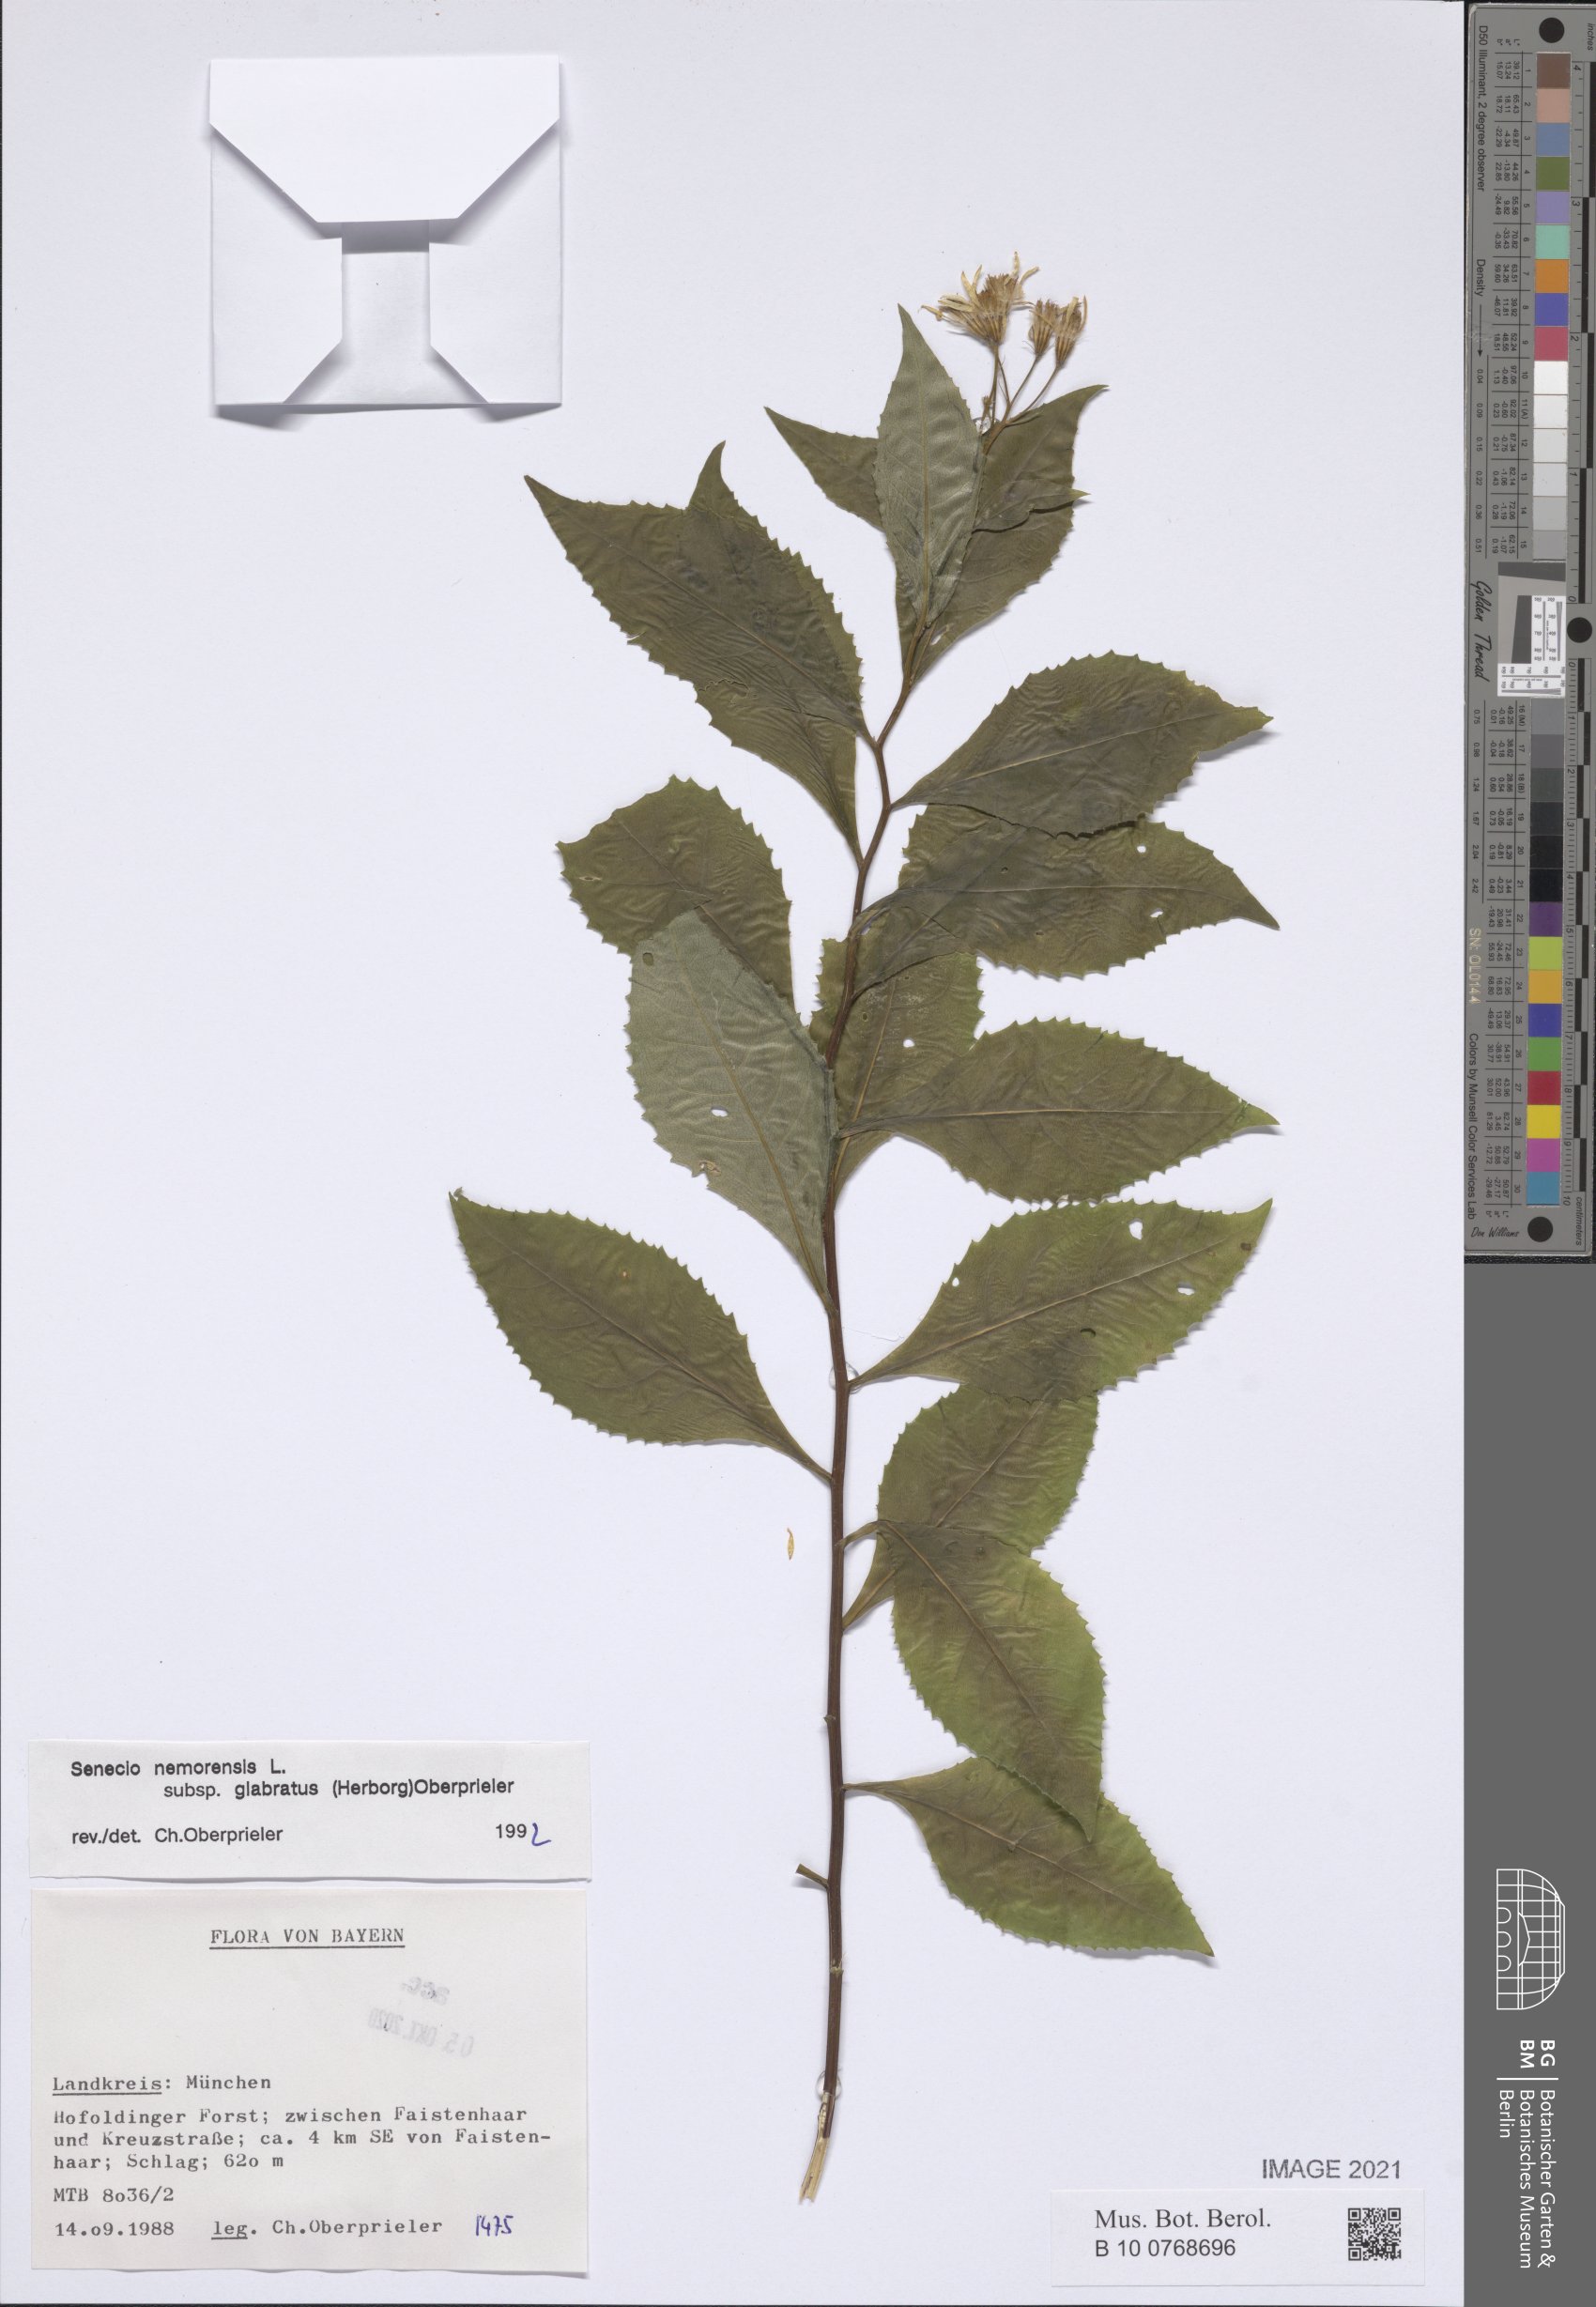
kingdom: Plantae
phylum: Tracheophyta
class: Magnoliopsida
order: Asterales
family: Asteraceae
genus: Senecio
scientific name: Senecio germanicus
